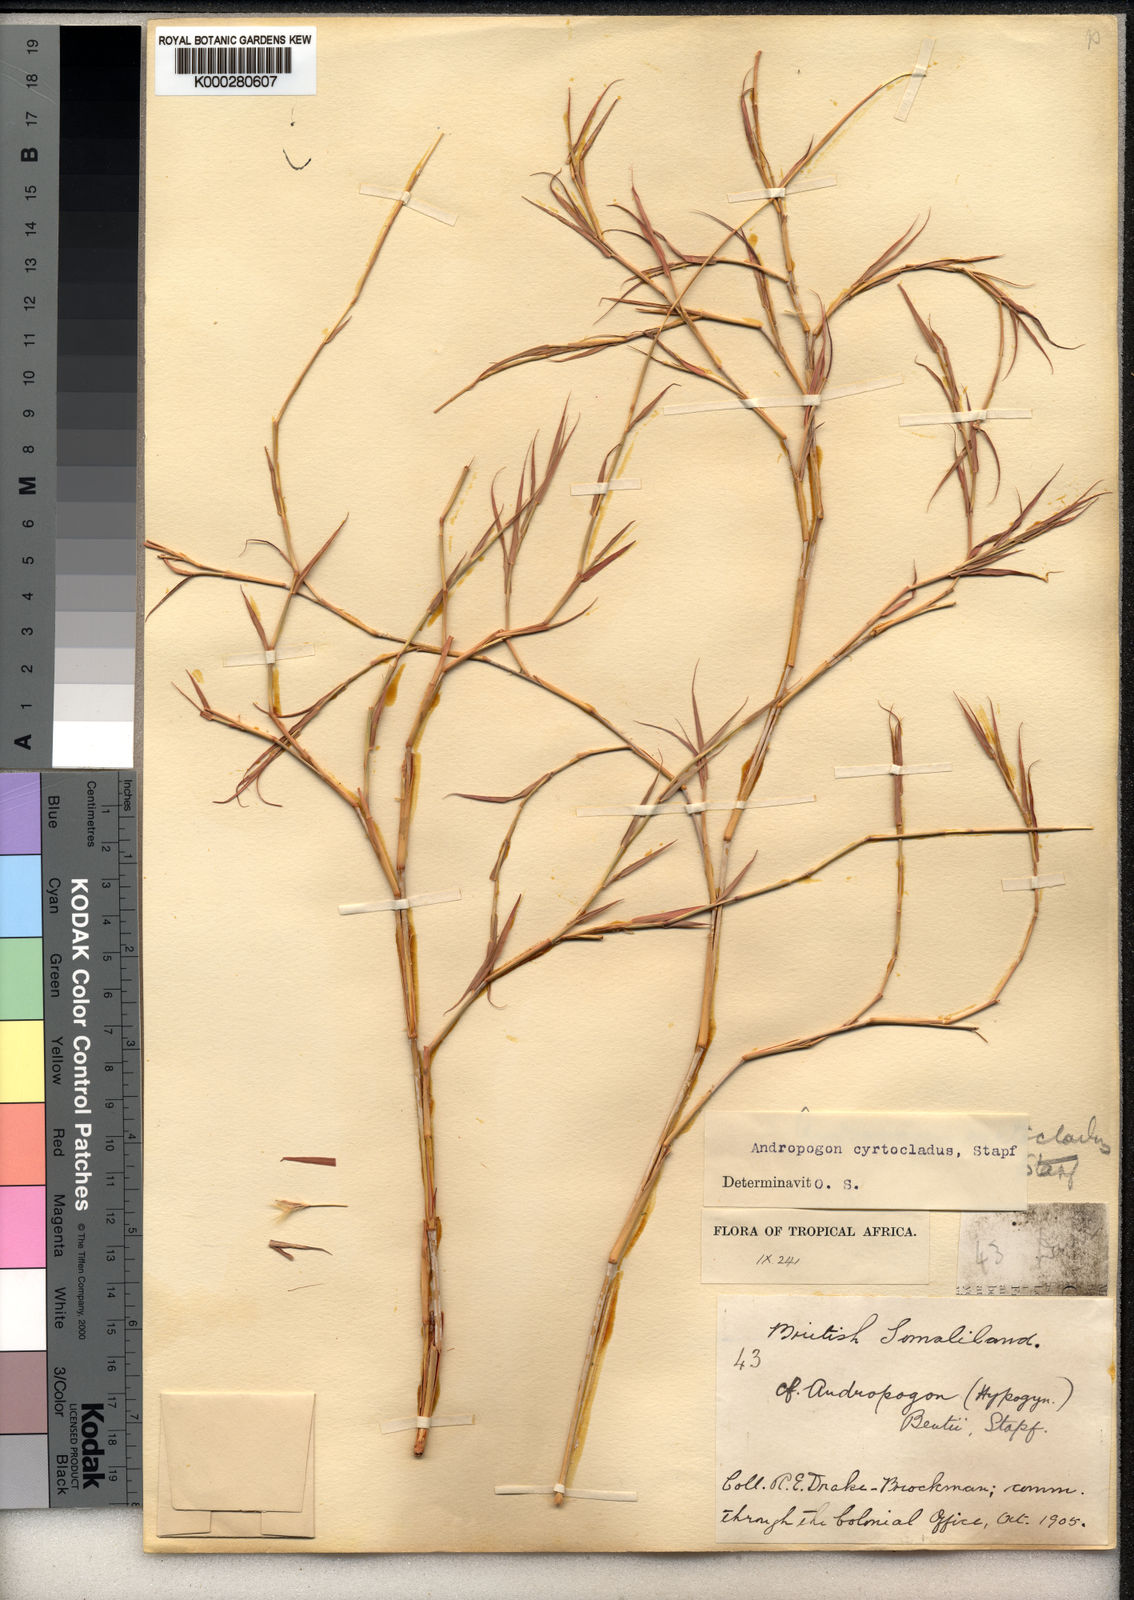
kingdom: Plantae
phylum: Tracheophyta
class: Liliopsida
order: Poales
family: Poaceae
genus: Andropogon
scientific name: Andropogon kelleri
